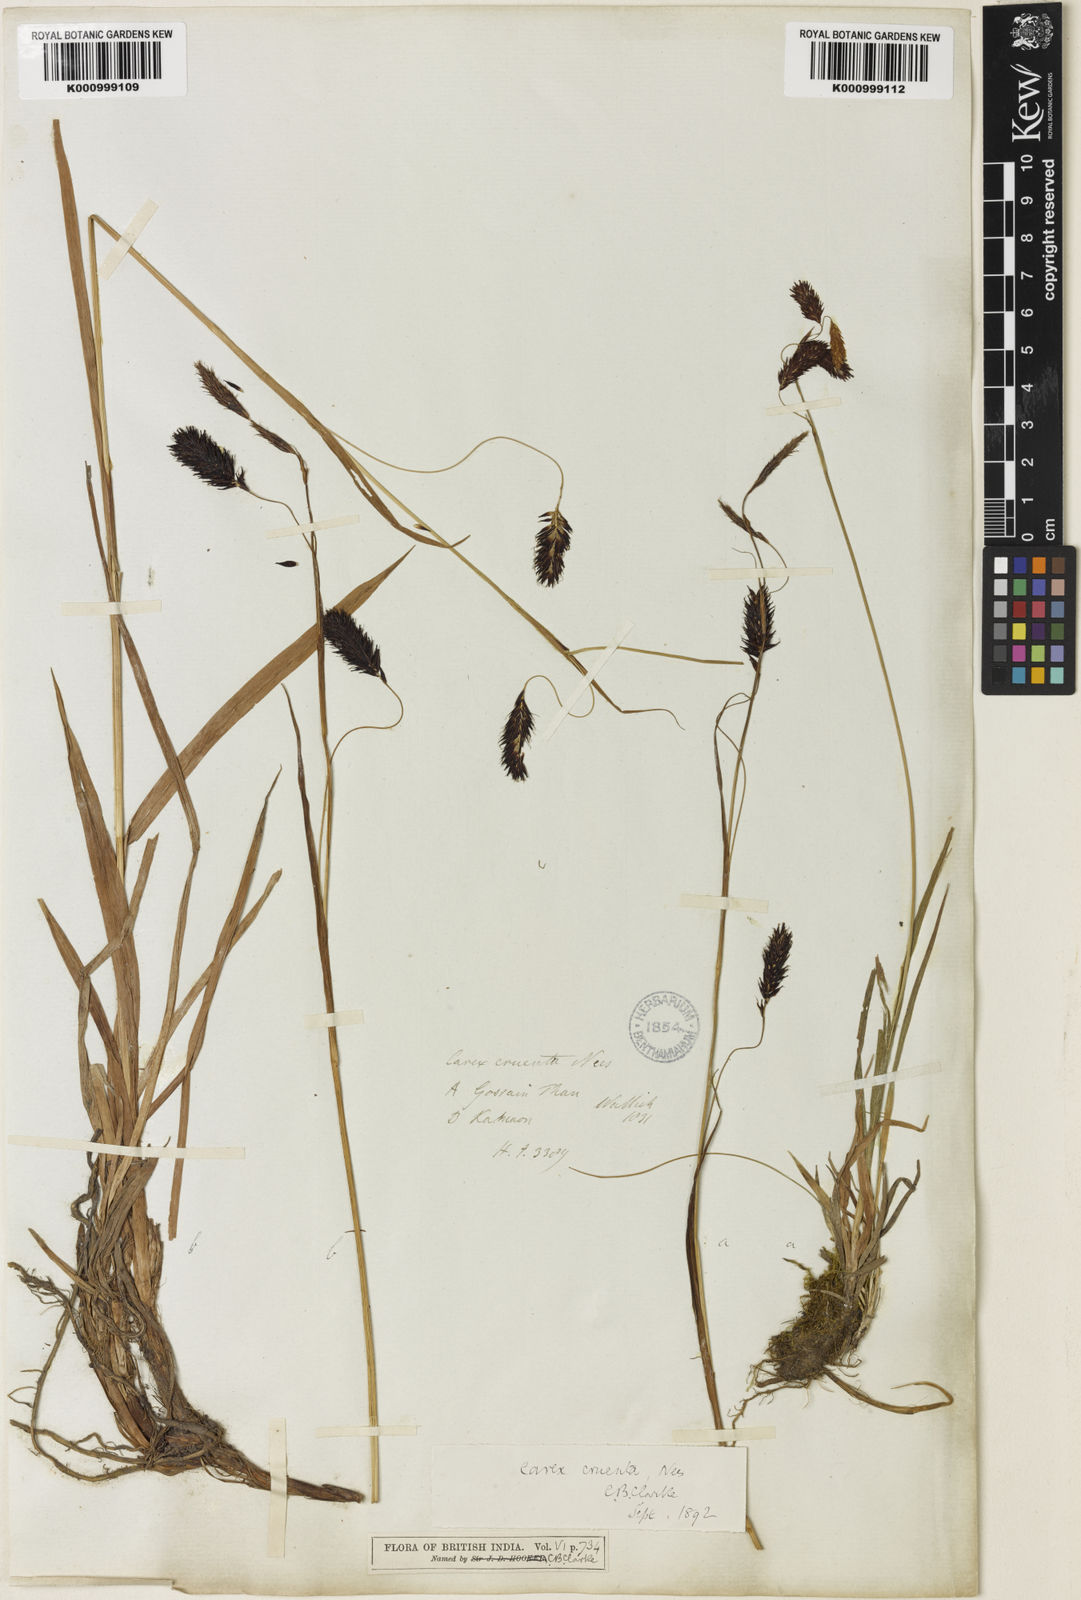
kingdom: Plantae
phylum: Tracheophyta
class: Liliopsida
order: Poales
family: Cyperaceae
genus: Carex
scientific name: Carex cruenta
